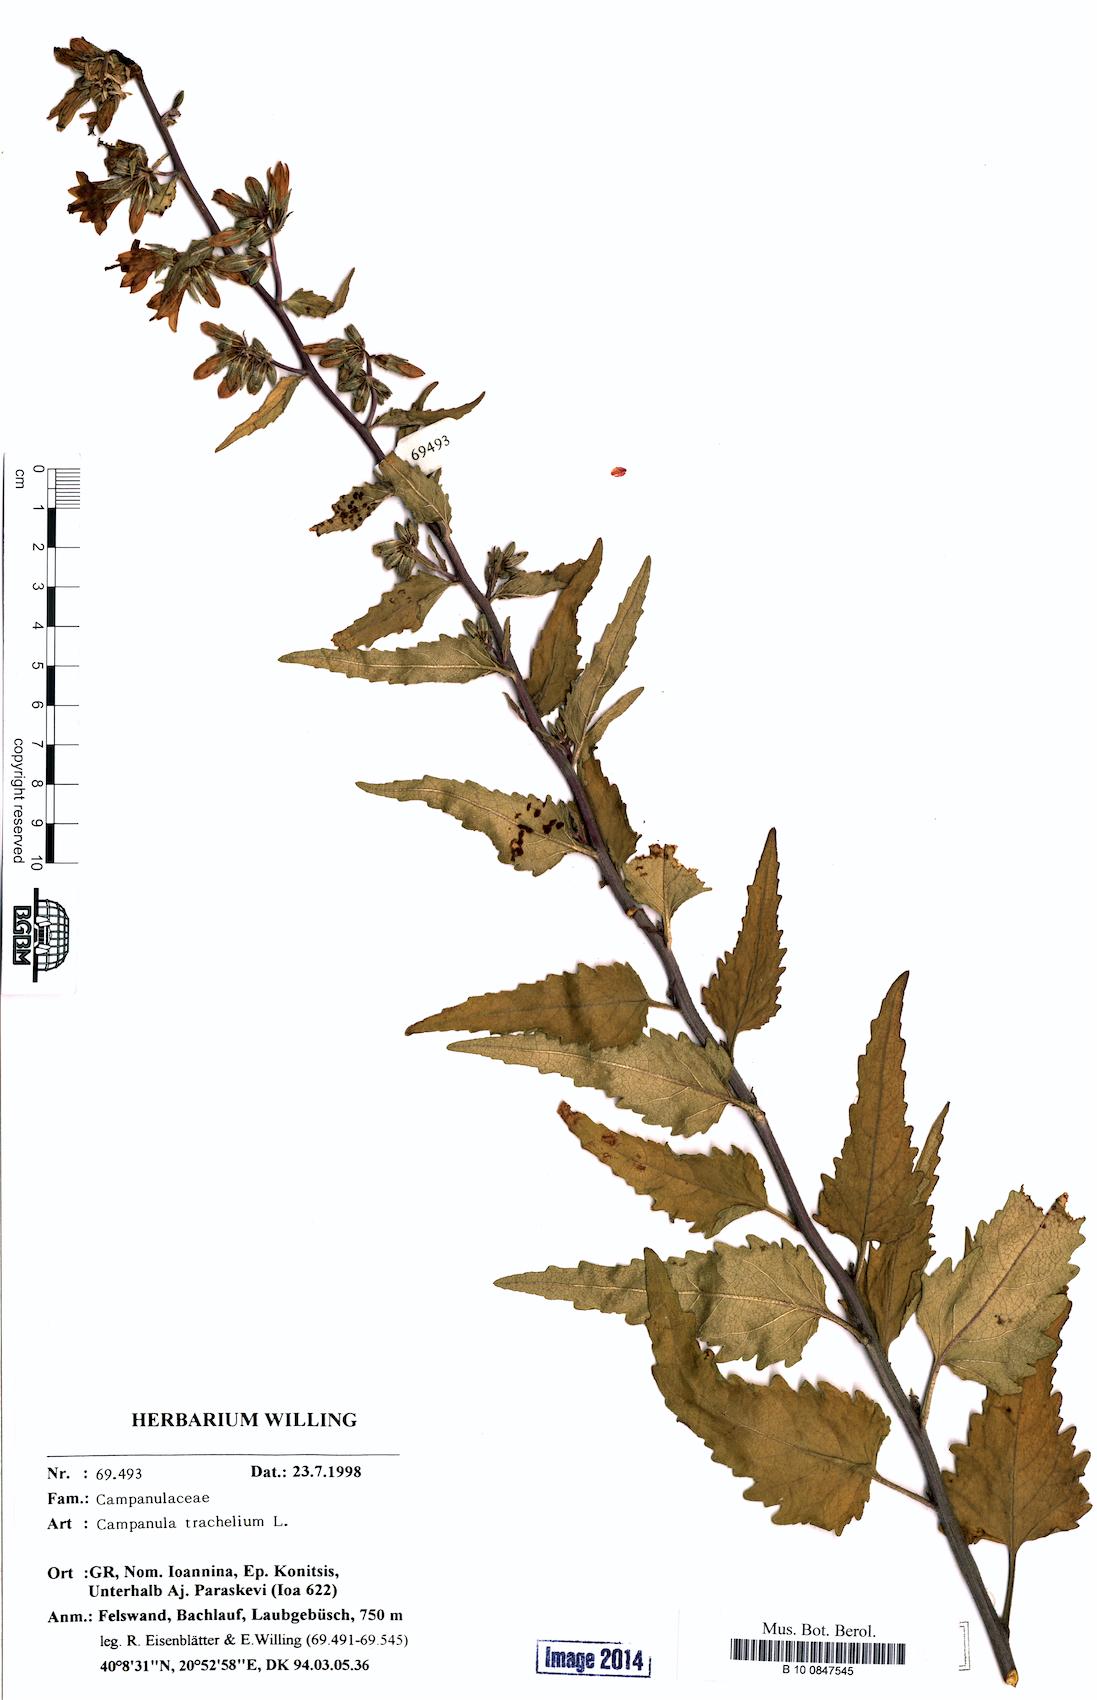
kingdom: Plantae
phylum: Tracheophyta
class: Magnoliopsida
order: Asterales
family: Campanulaceae
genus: Campanula
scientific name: Campanula trachelium
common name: Nettle-leaved bellflower
